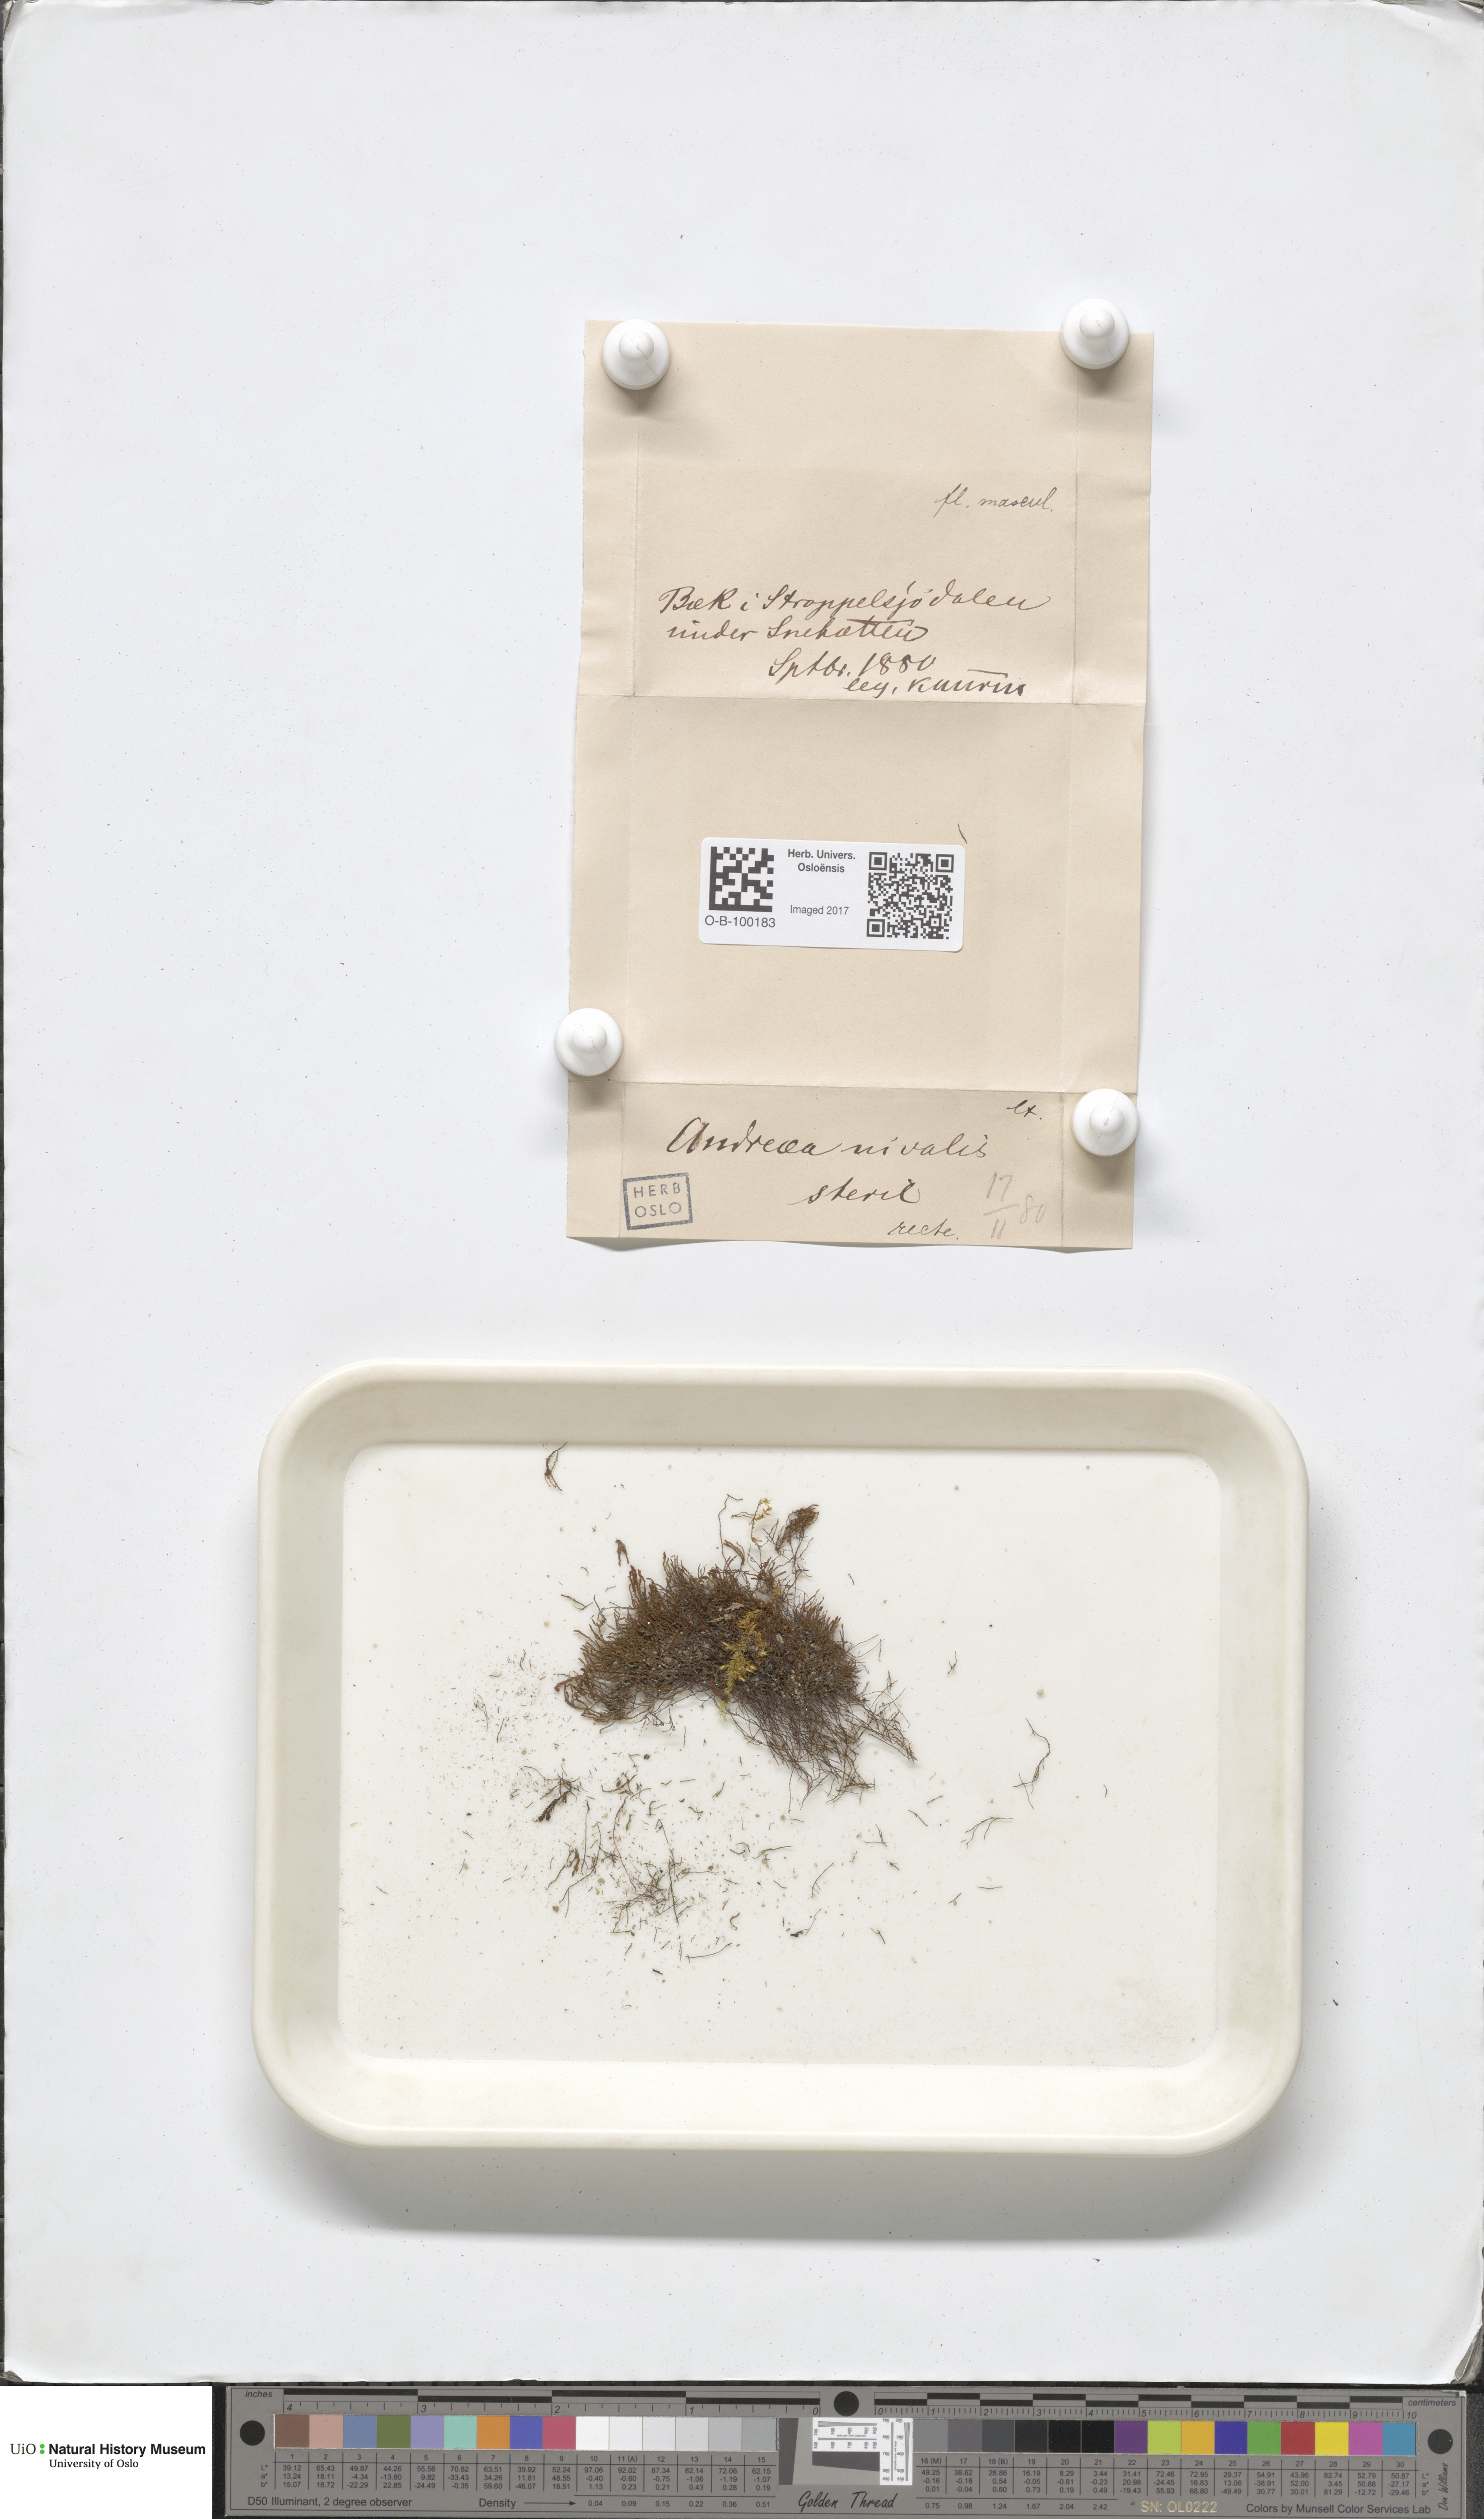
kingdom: Plantae
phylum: Bryophyta
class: Andreaeopsida
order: Andreaeales
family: Andreaeaceae
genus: Andreaea
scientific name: Andreaea nivalis
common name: Snow rock moss
